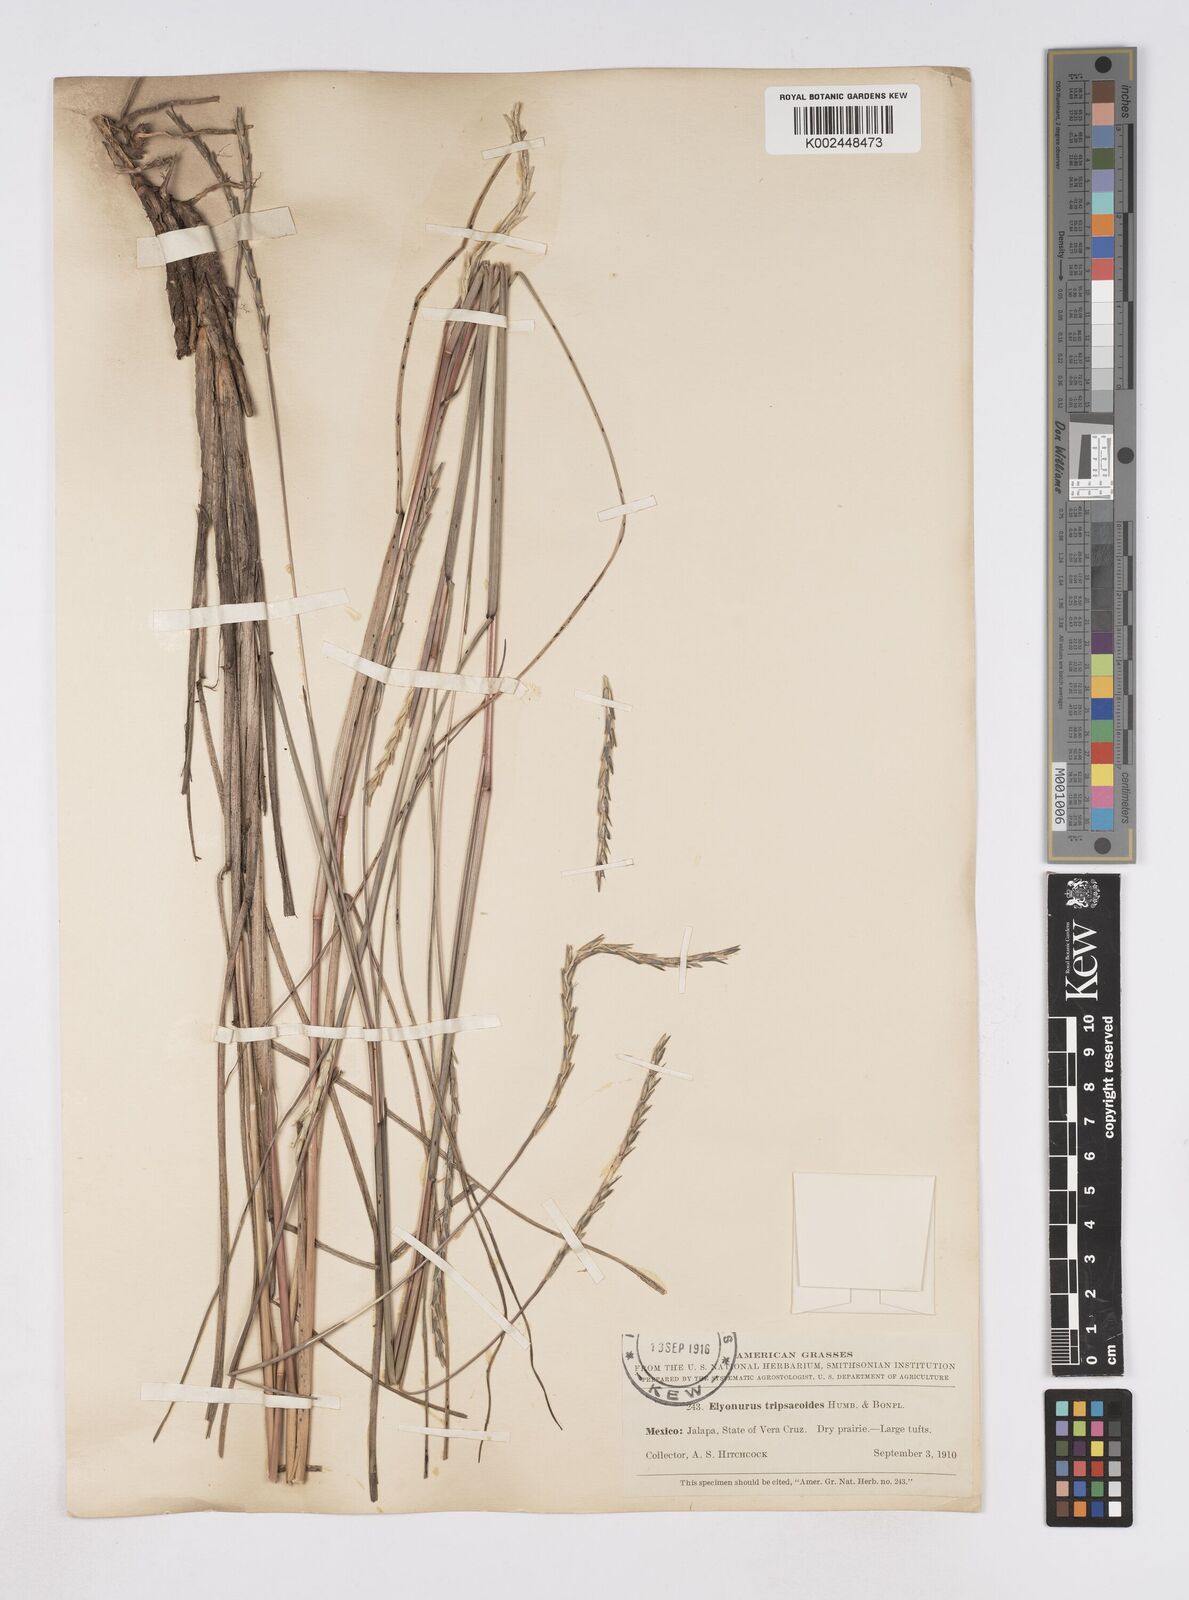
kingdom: Plantae
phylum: Tracheophyta
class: Liliopsida
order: Poales
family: Poaceae
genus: Elionurus
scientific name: Elionurus tripsacoides
